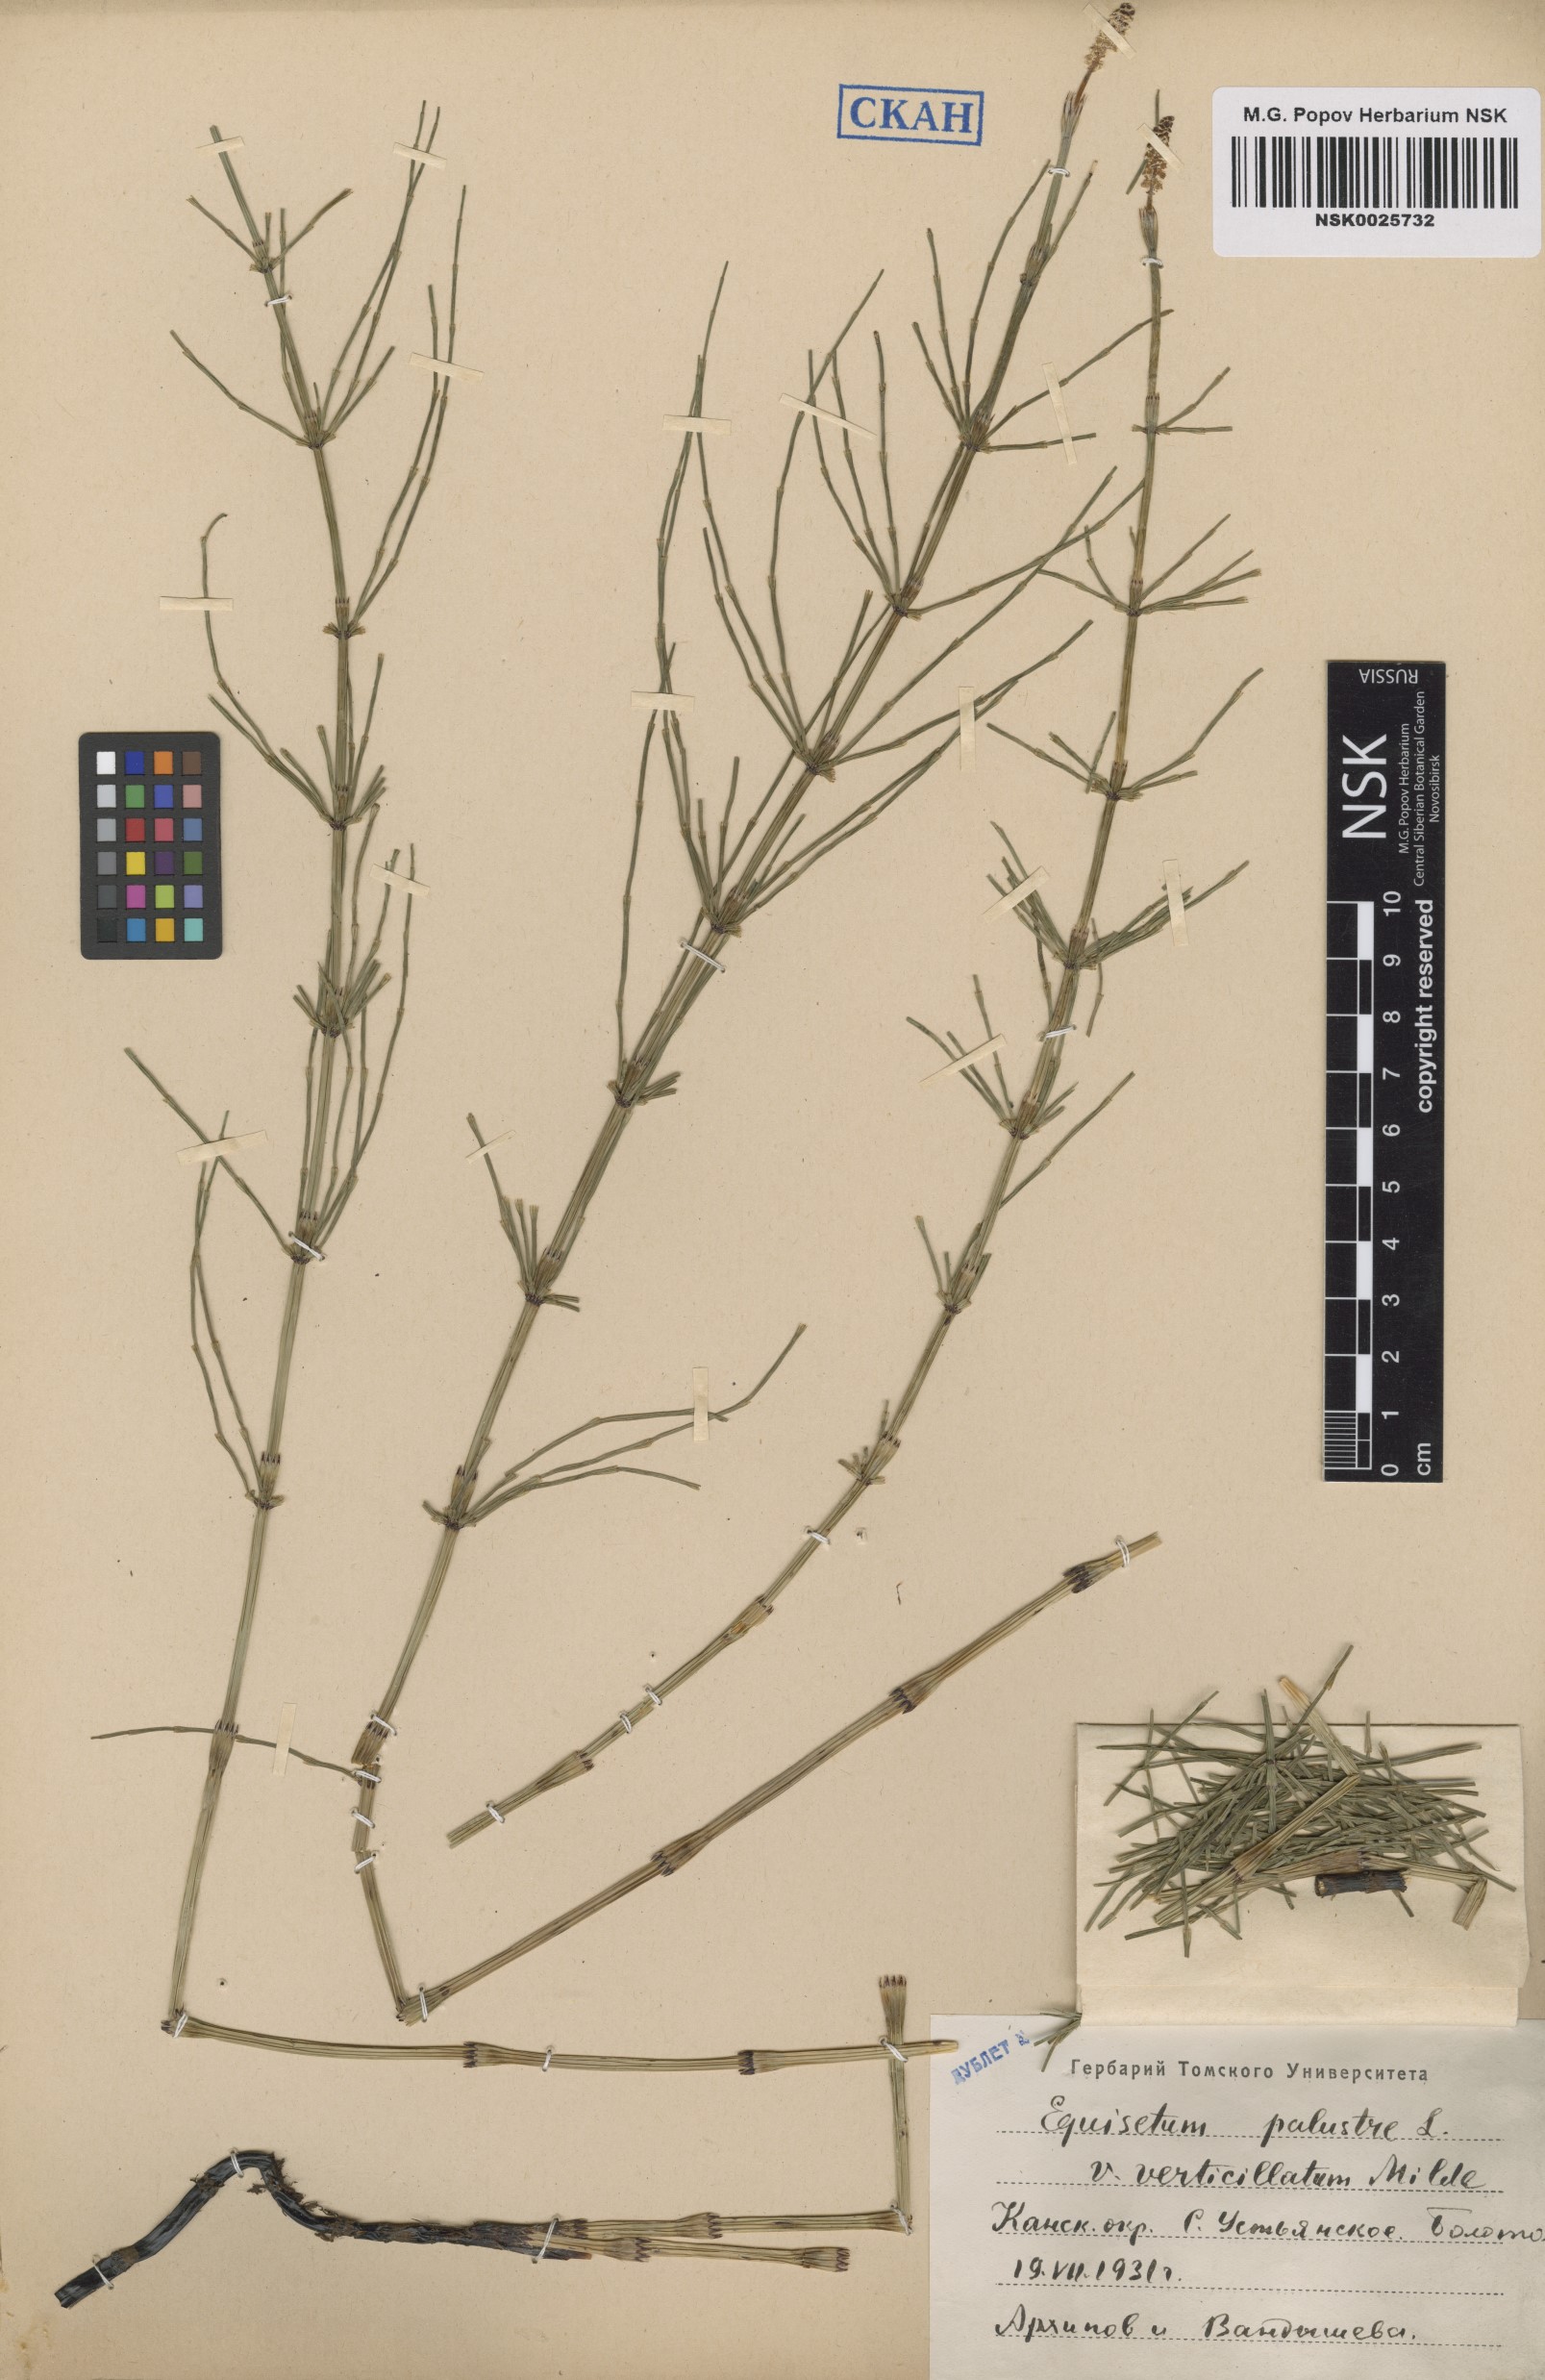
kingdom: Plantae
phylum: Tracheophyta
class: Polypodiopsida
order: Equisetales
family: Equisetaceae
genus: Equisetum
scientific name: Equisetum palustre
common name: Marsh horsetail
